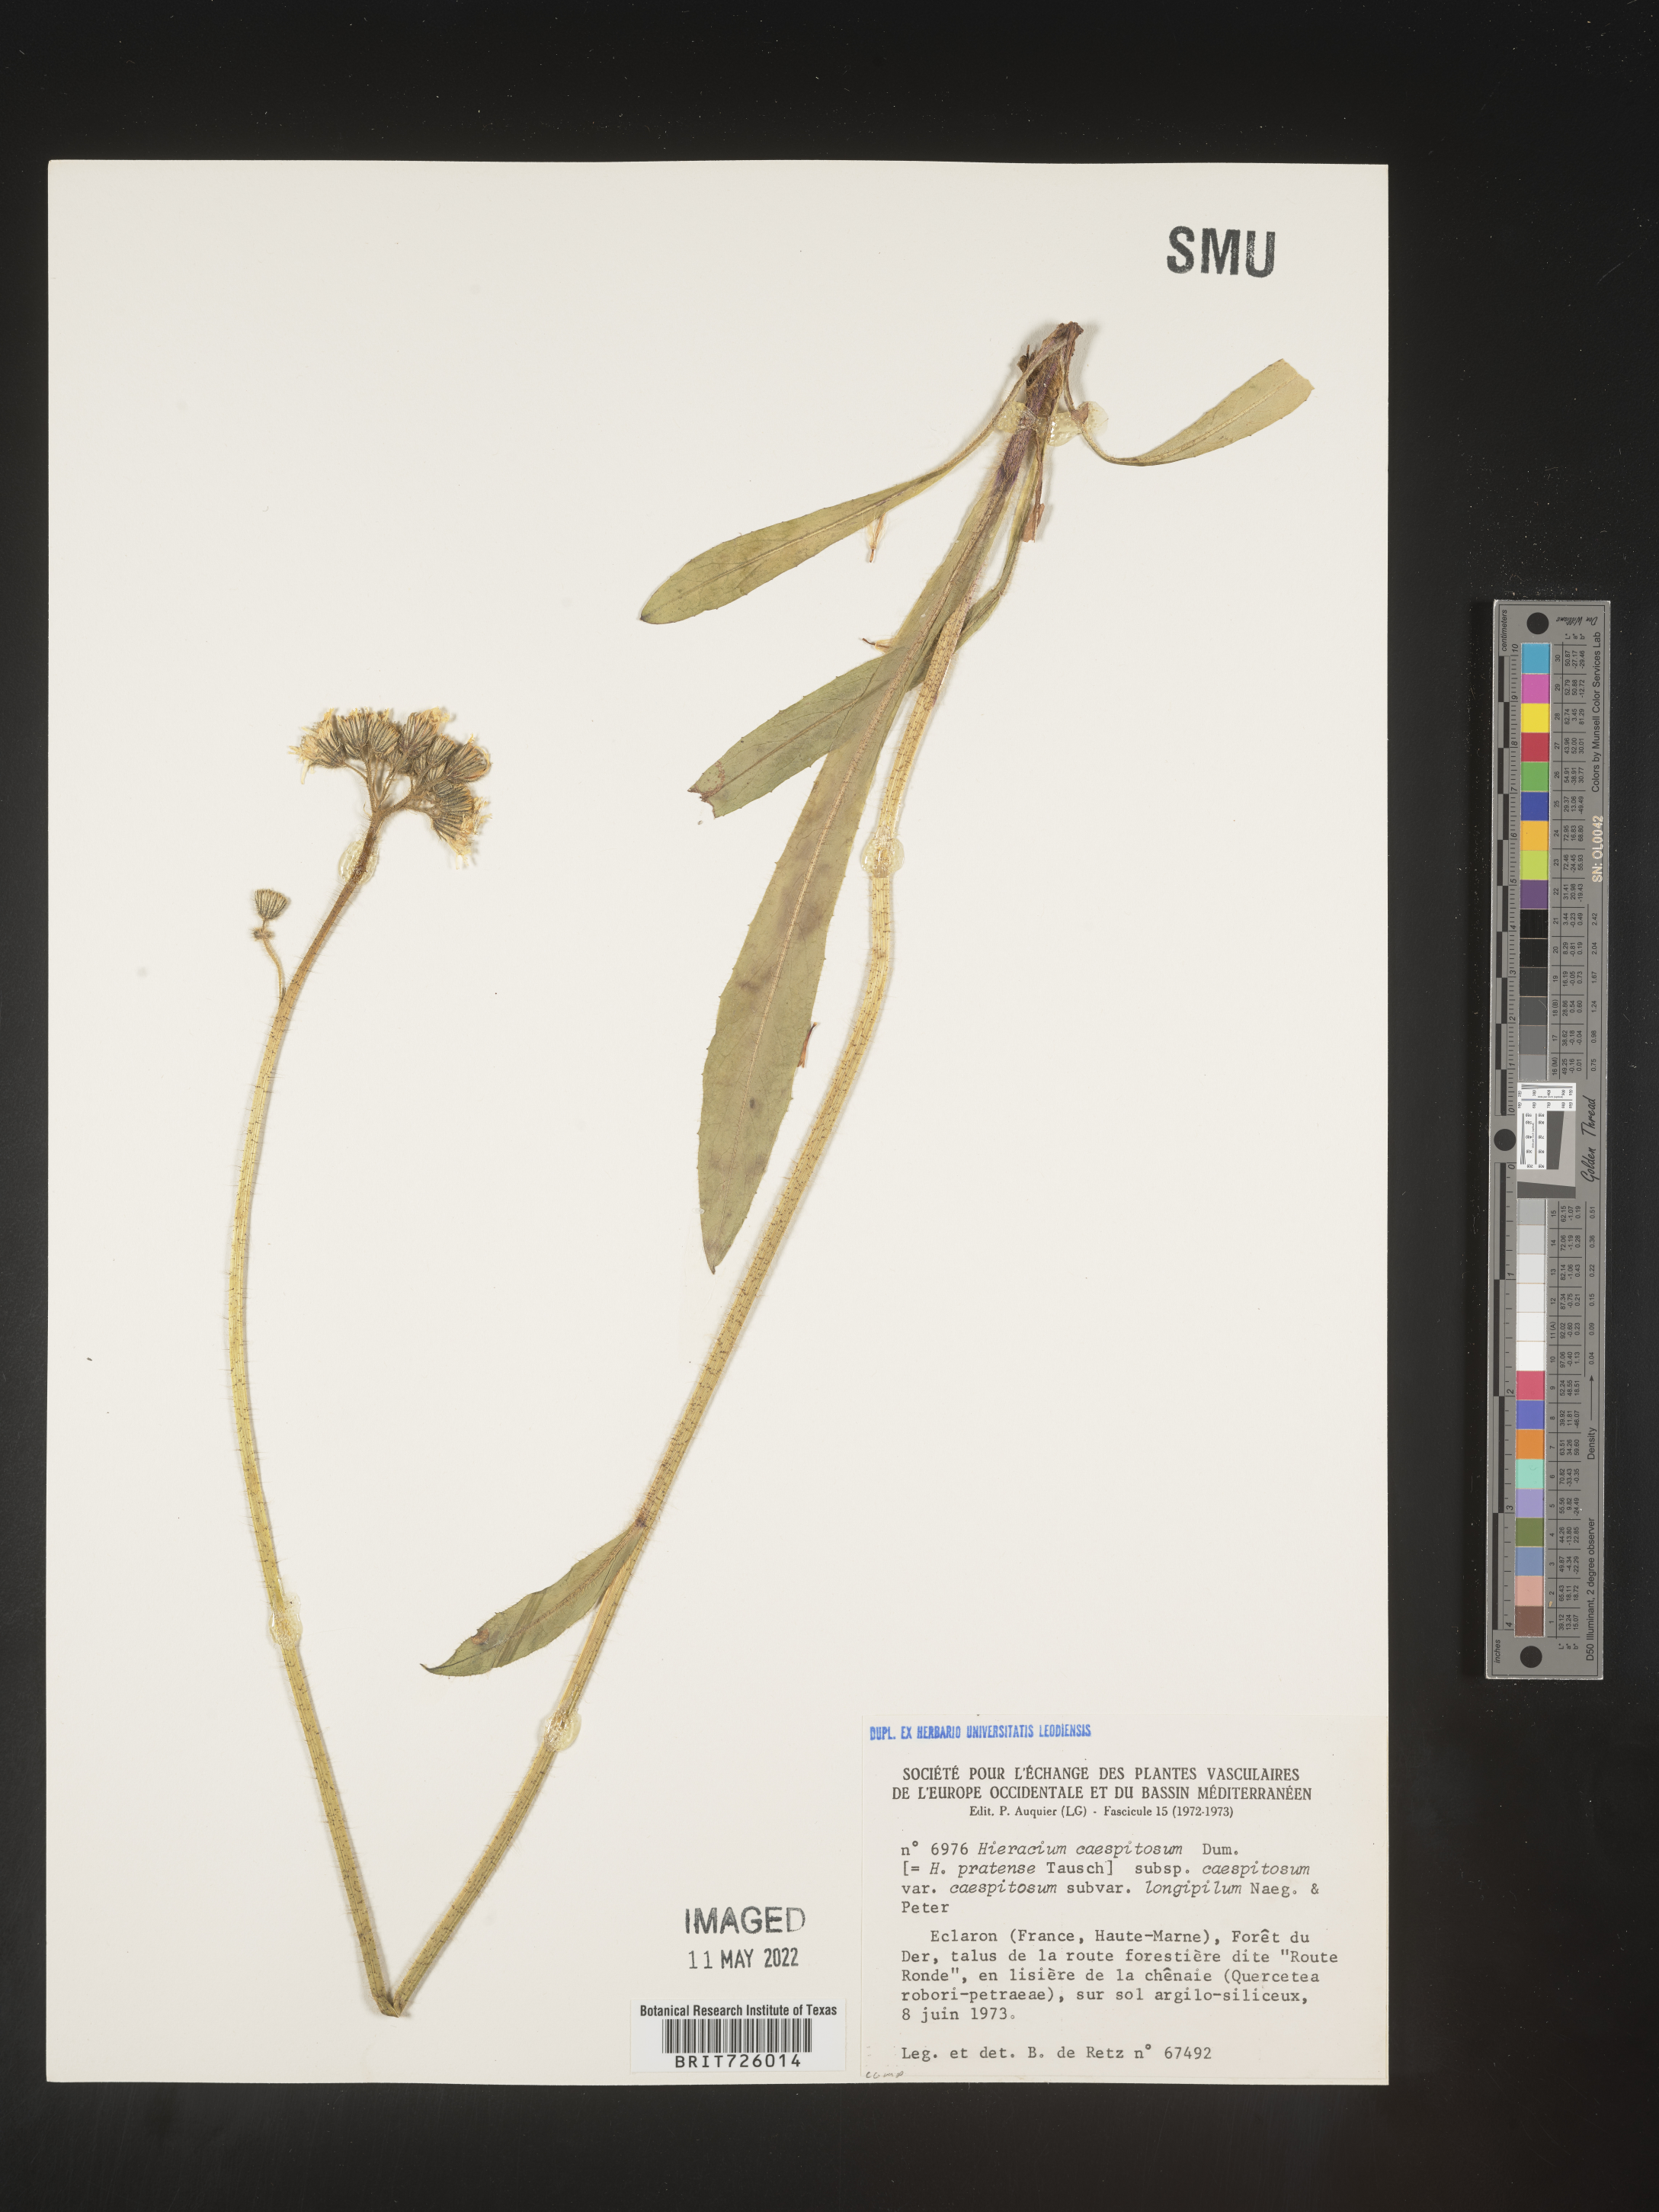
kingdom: Plantae
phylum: Tracheophyta
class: Magnoliopsida
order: Asterales
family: Asteraceae
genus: Hieracium
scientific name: Hieracium
